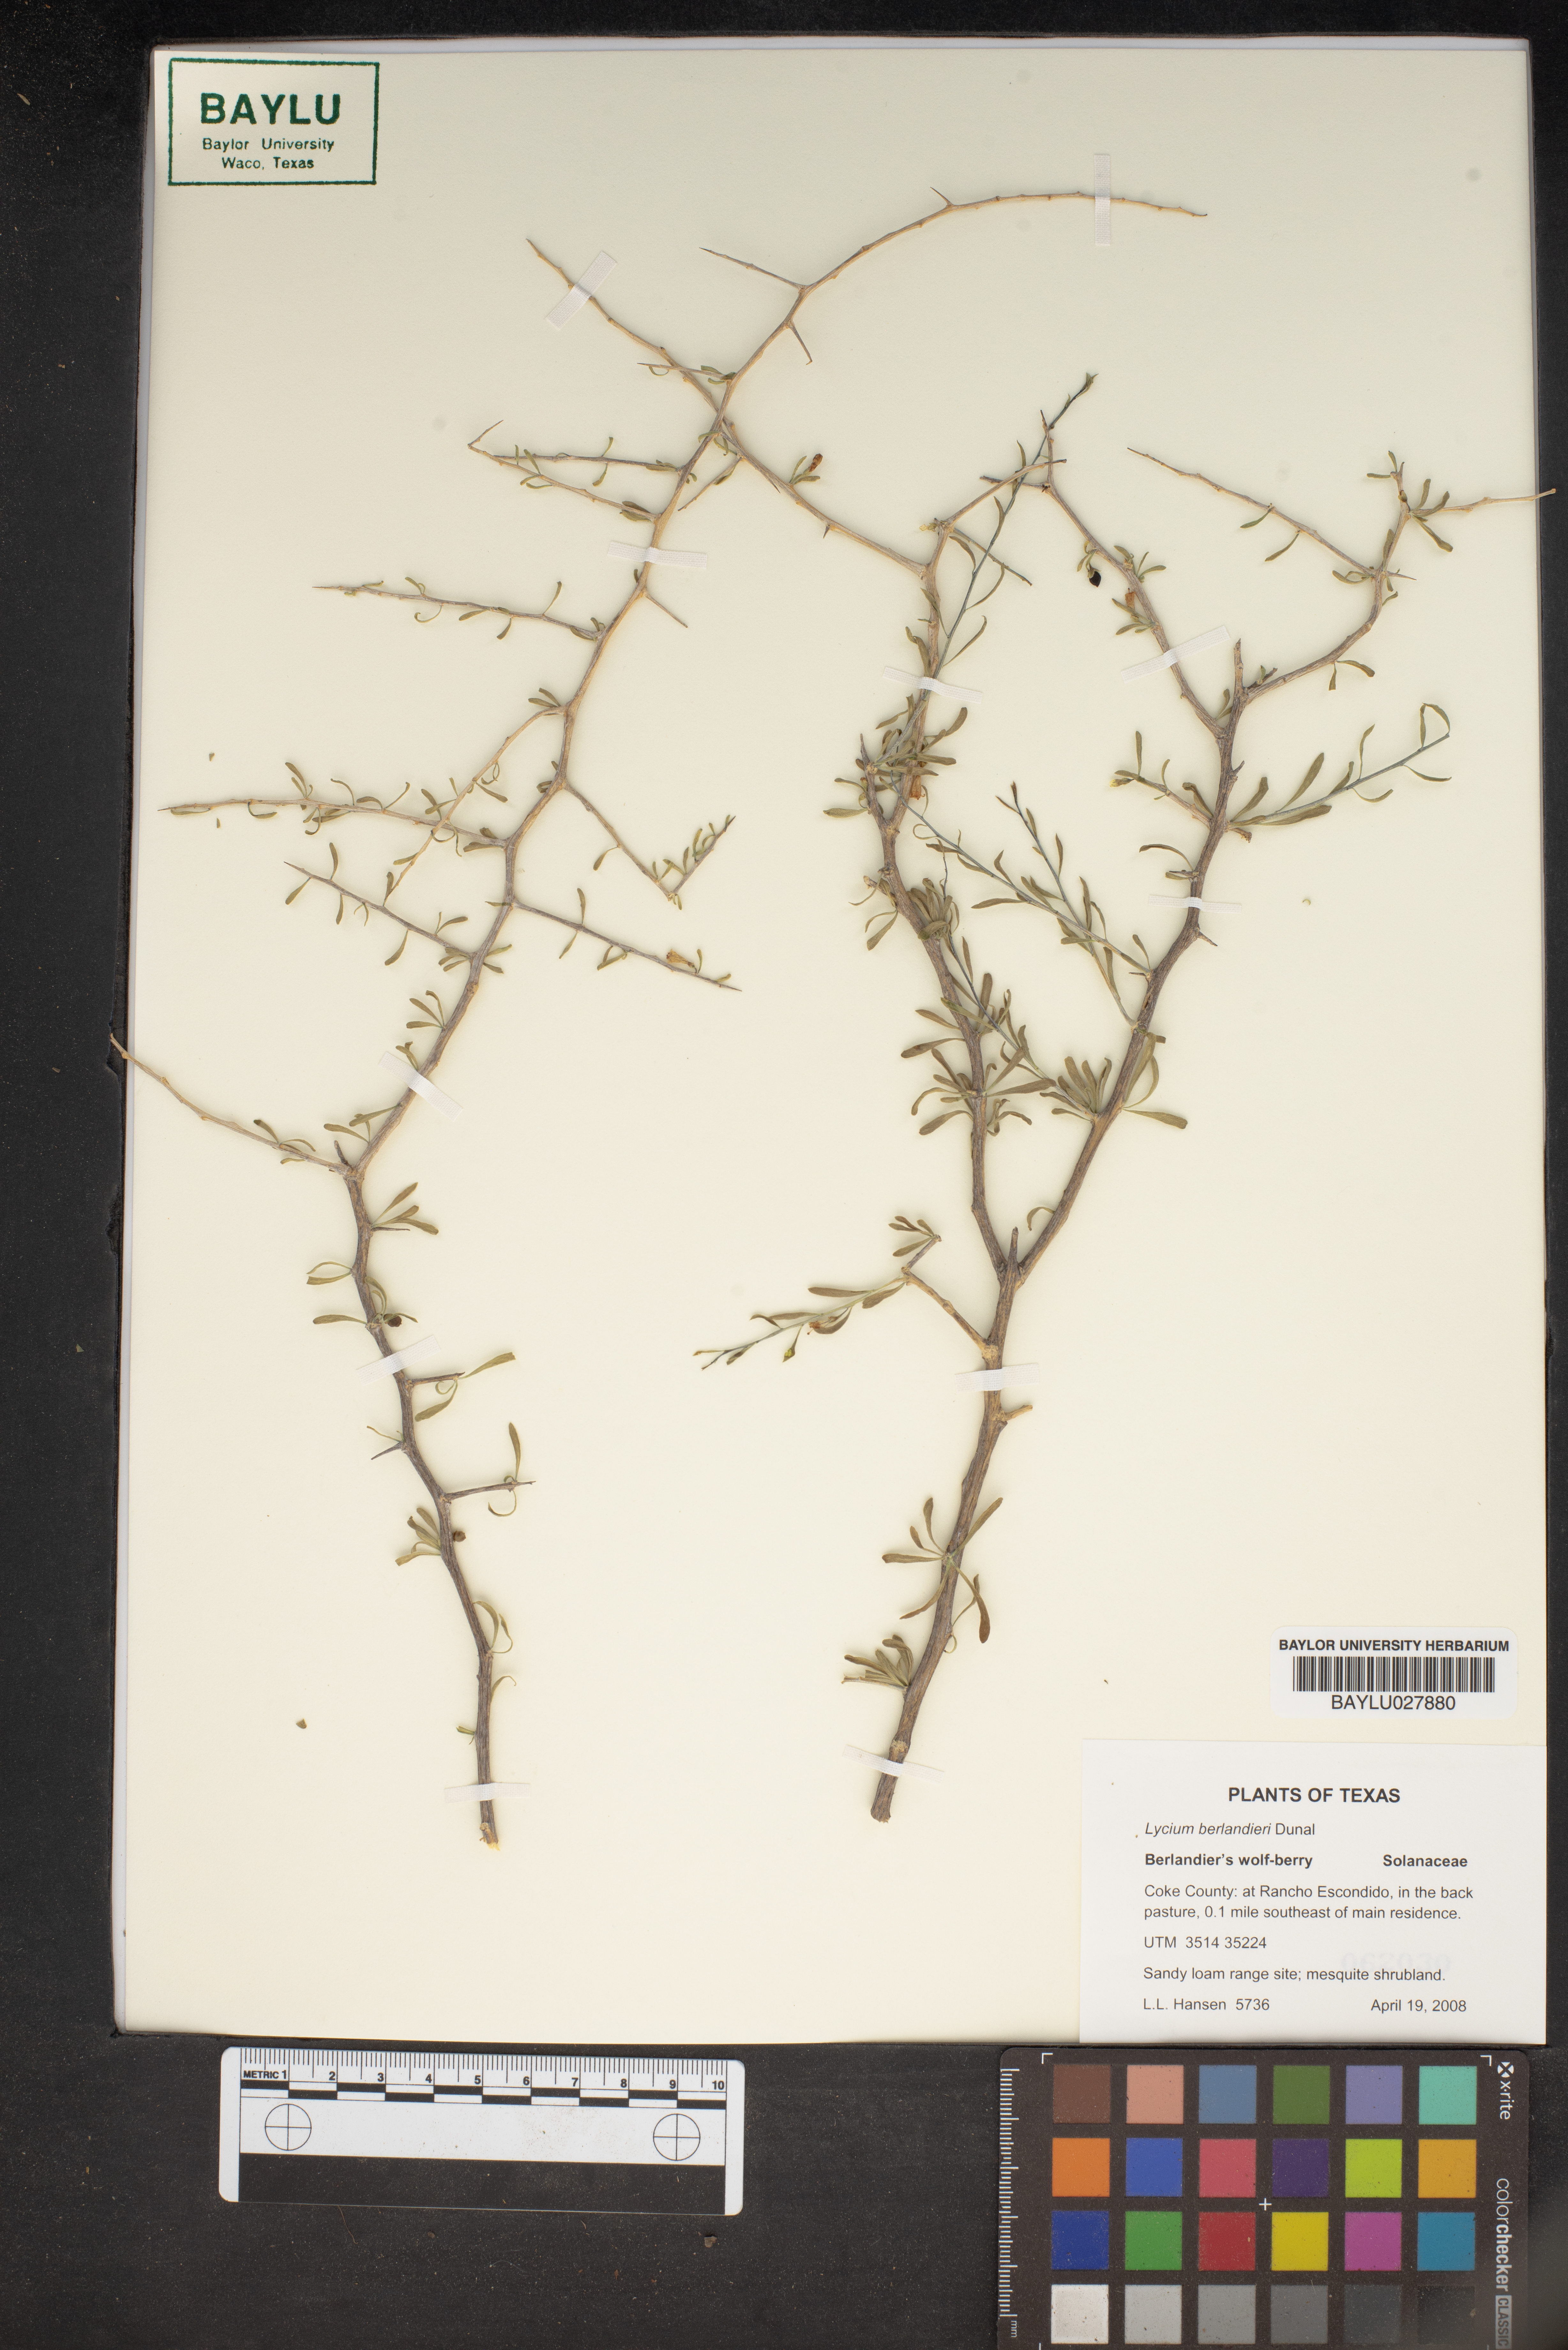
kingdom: Plantae
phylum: Tracheophyta
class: Magnoliopsida
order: Solanales
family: Solanaceae
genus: Lycium
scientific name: Lycium berlandieri
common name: Berlandier wolfberry
